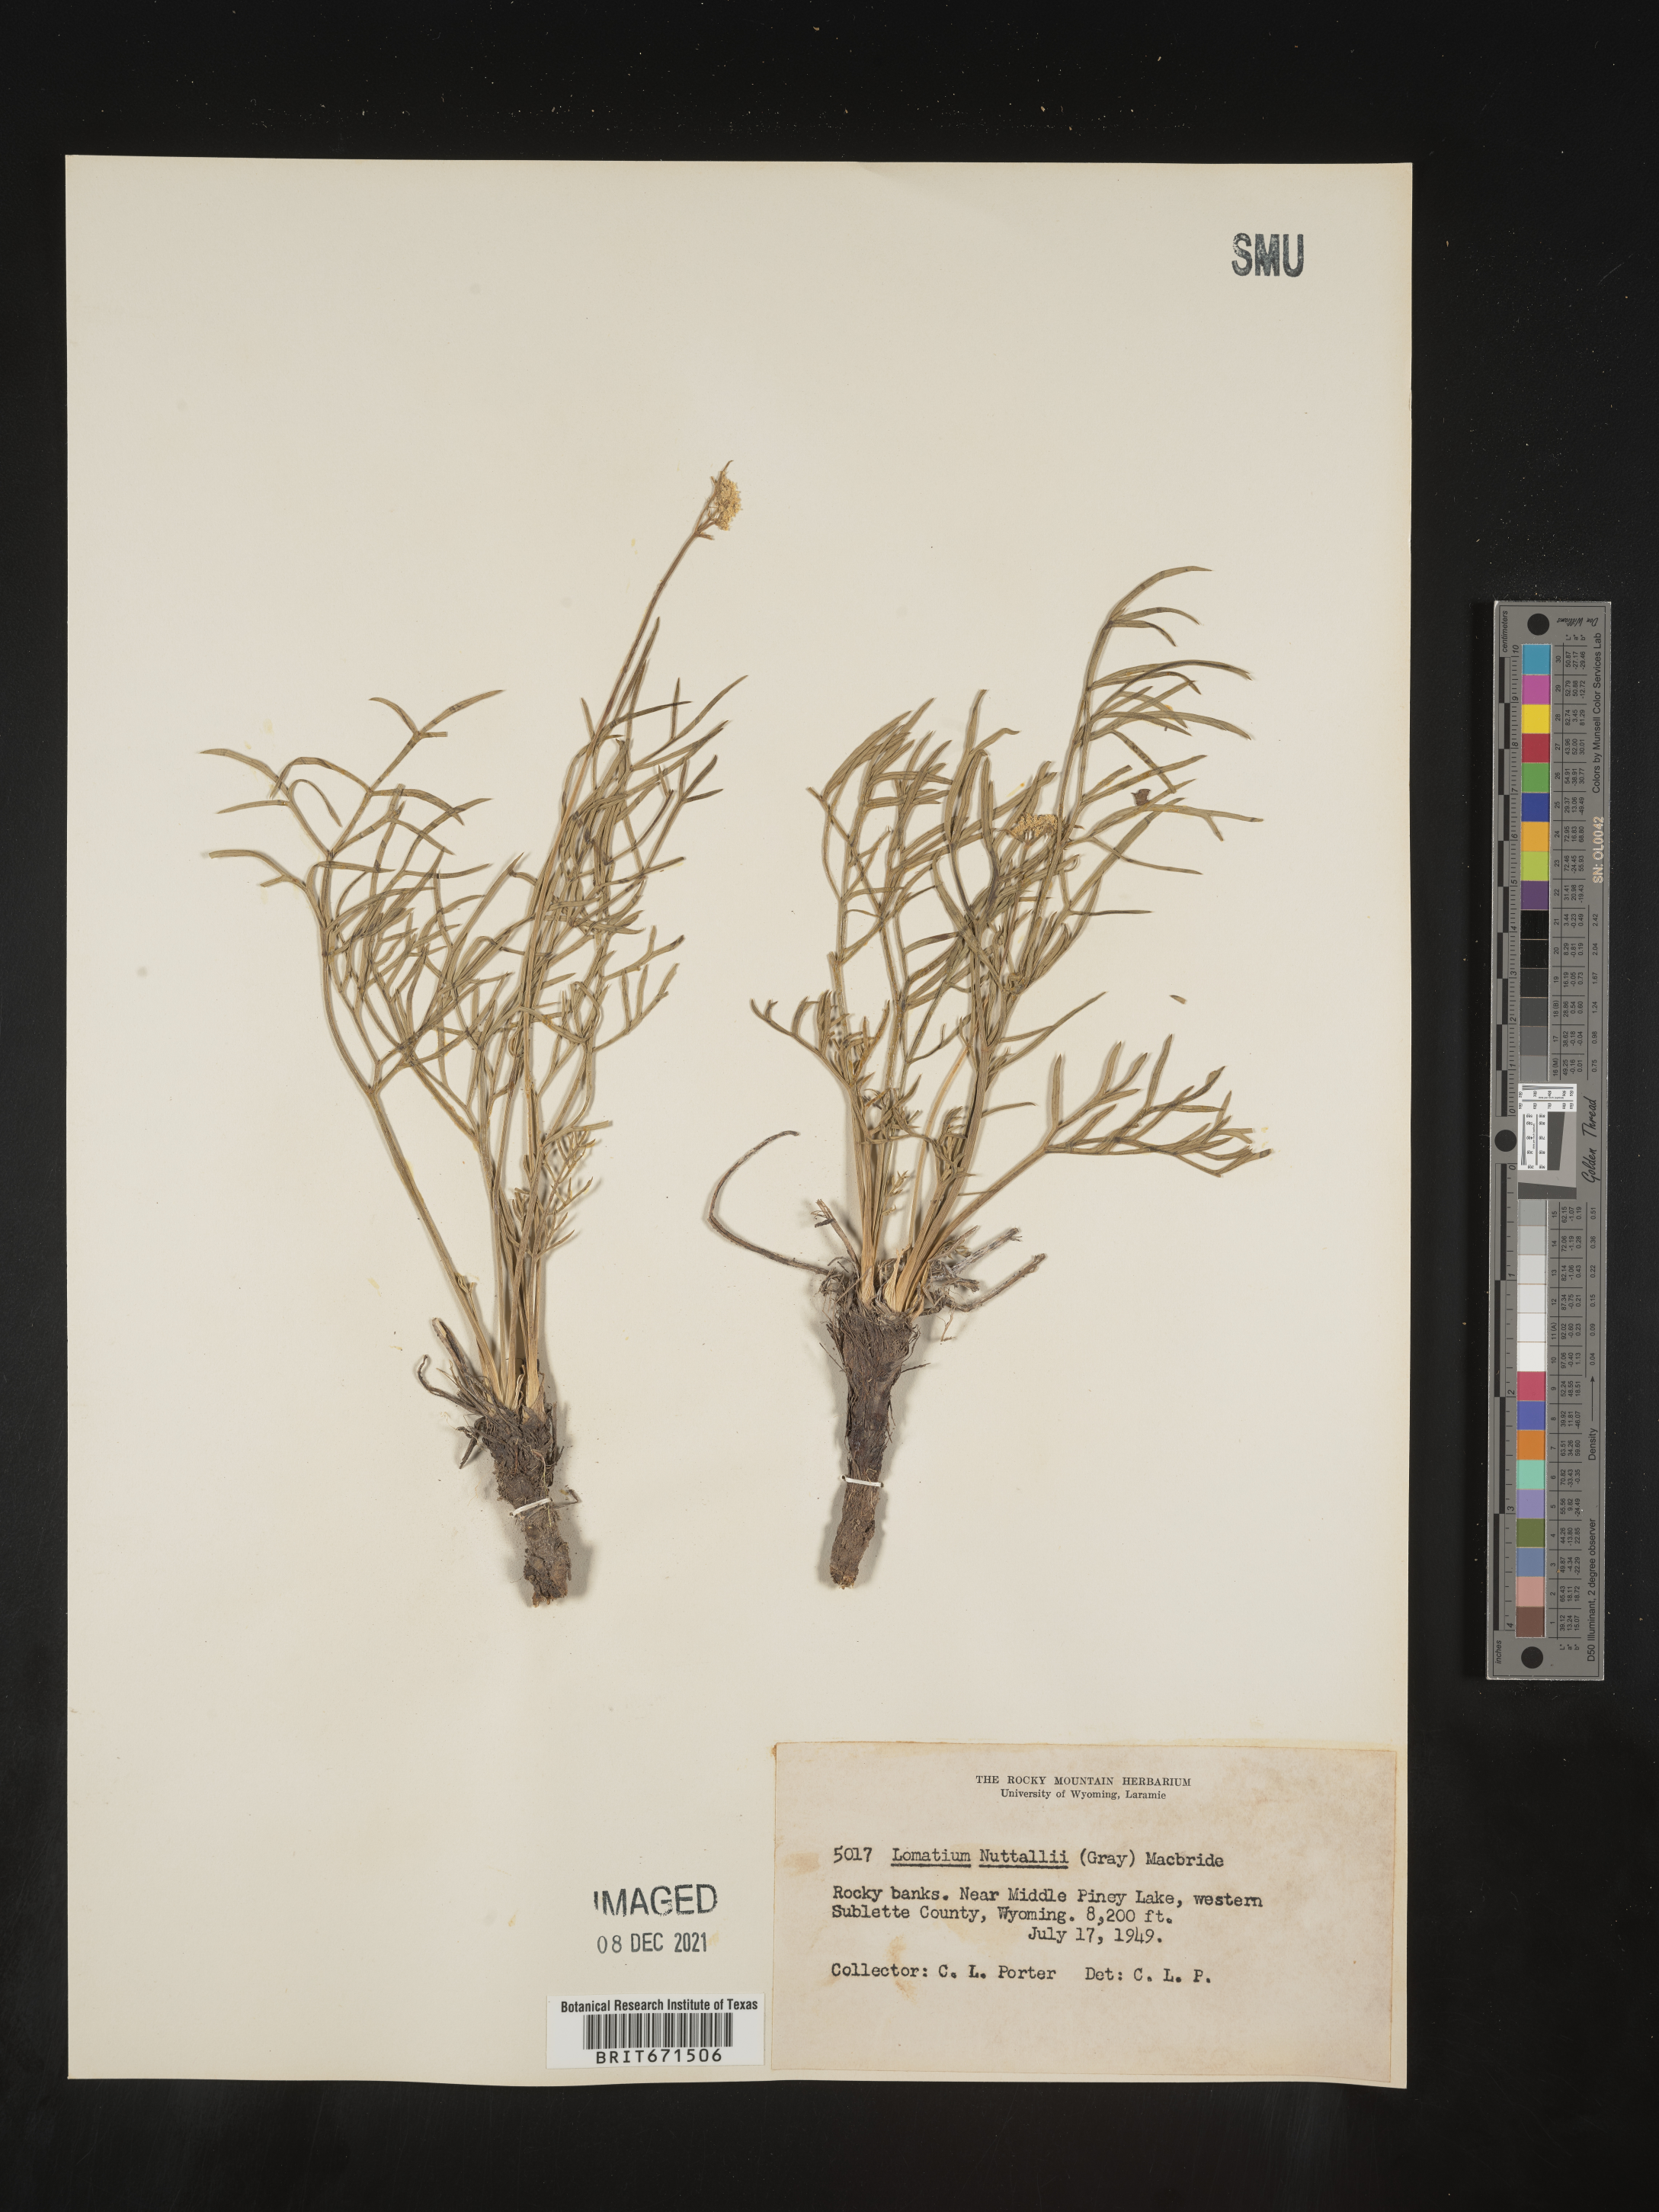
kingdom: Plantae
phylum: Tracheophyta
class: Magnoliopsida
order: Apiales
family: Apiaceae
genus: Lomatium
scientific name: Lomatium nuttallii
